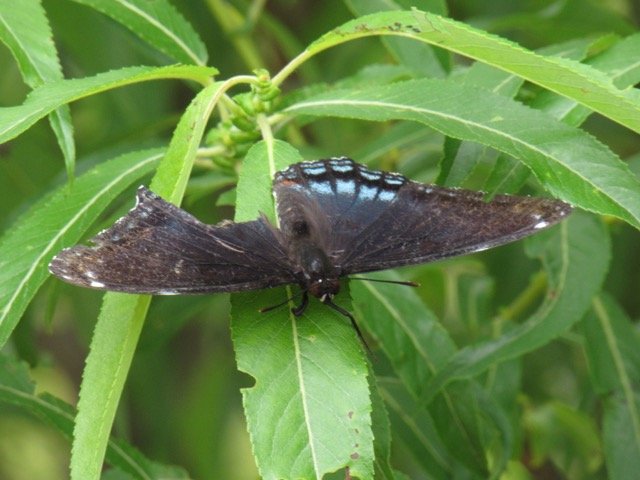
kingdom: Animalia
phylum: Arthropoda
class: Insecta
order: Lepidoptera
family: Nymphalidae
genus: Limenitis
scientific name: Limenitis
